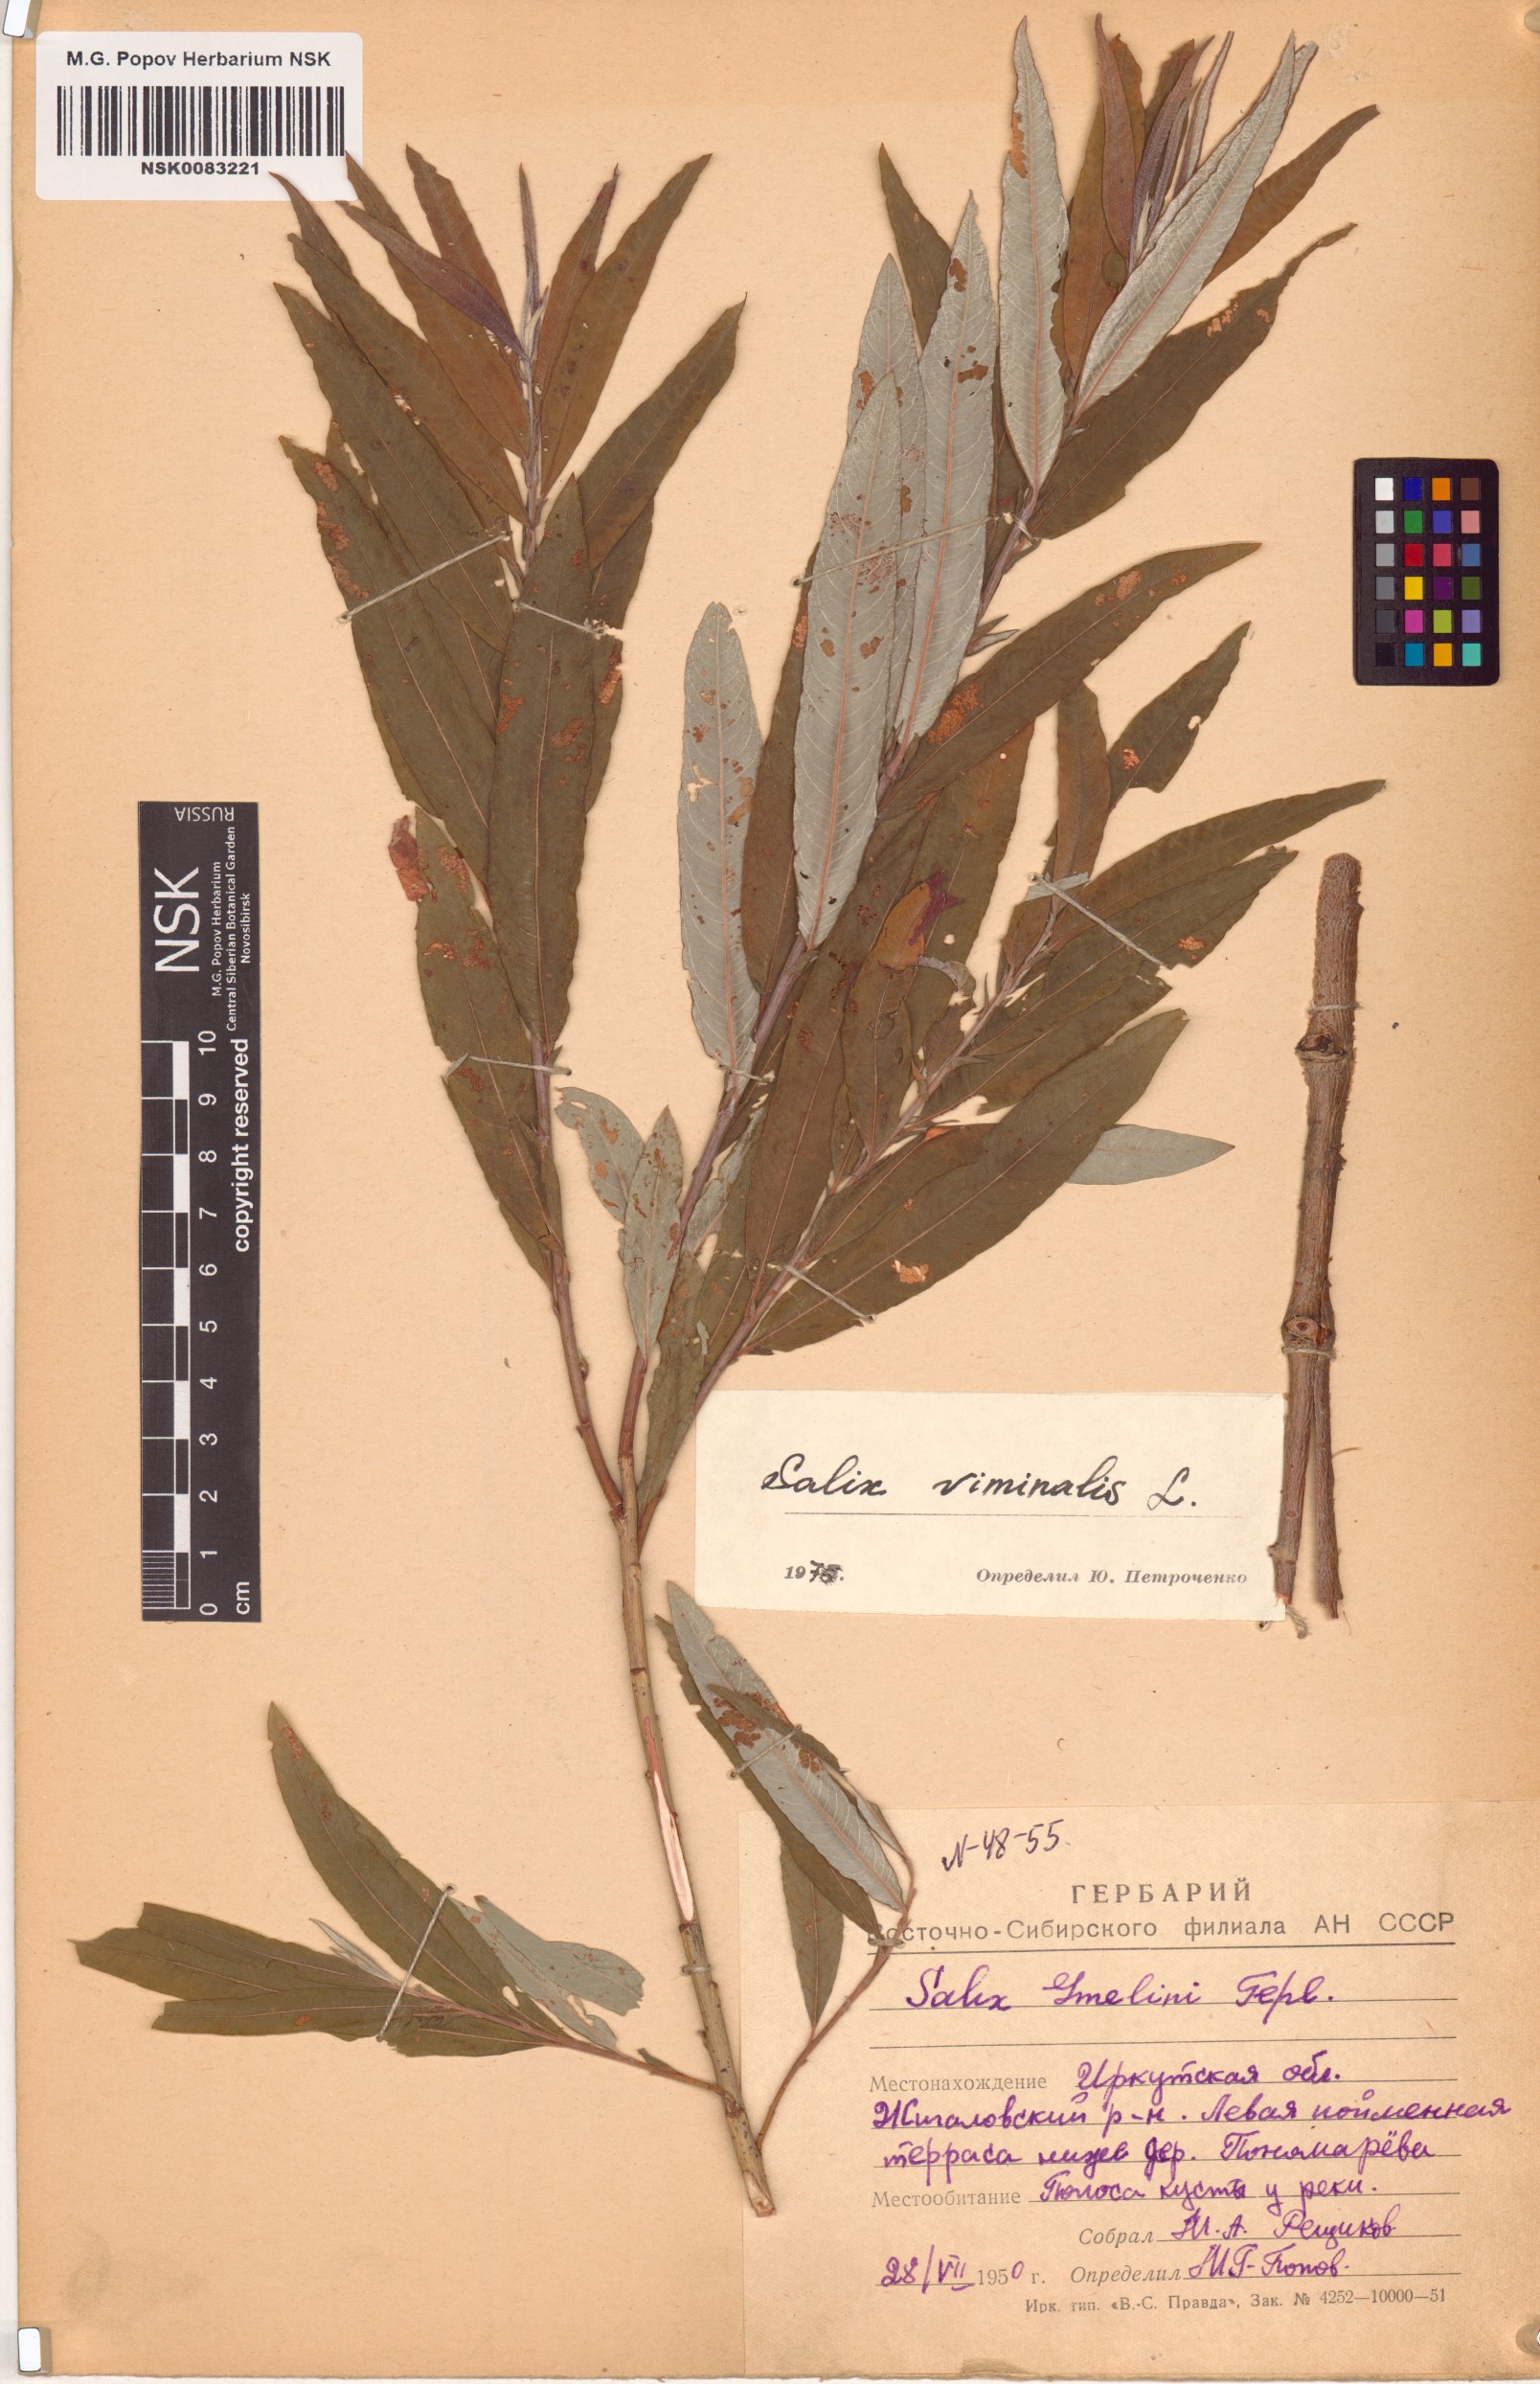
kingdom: Plantae
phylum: Tracheophyta
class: Magnoliopsida
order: Malpighiales
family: Salicaceae
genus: Salix
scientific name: Salix viminalis
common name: Osier
